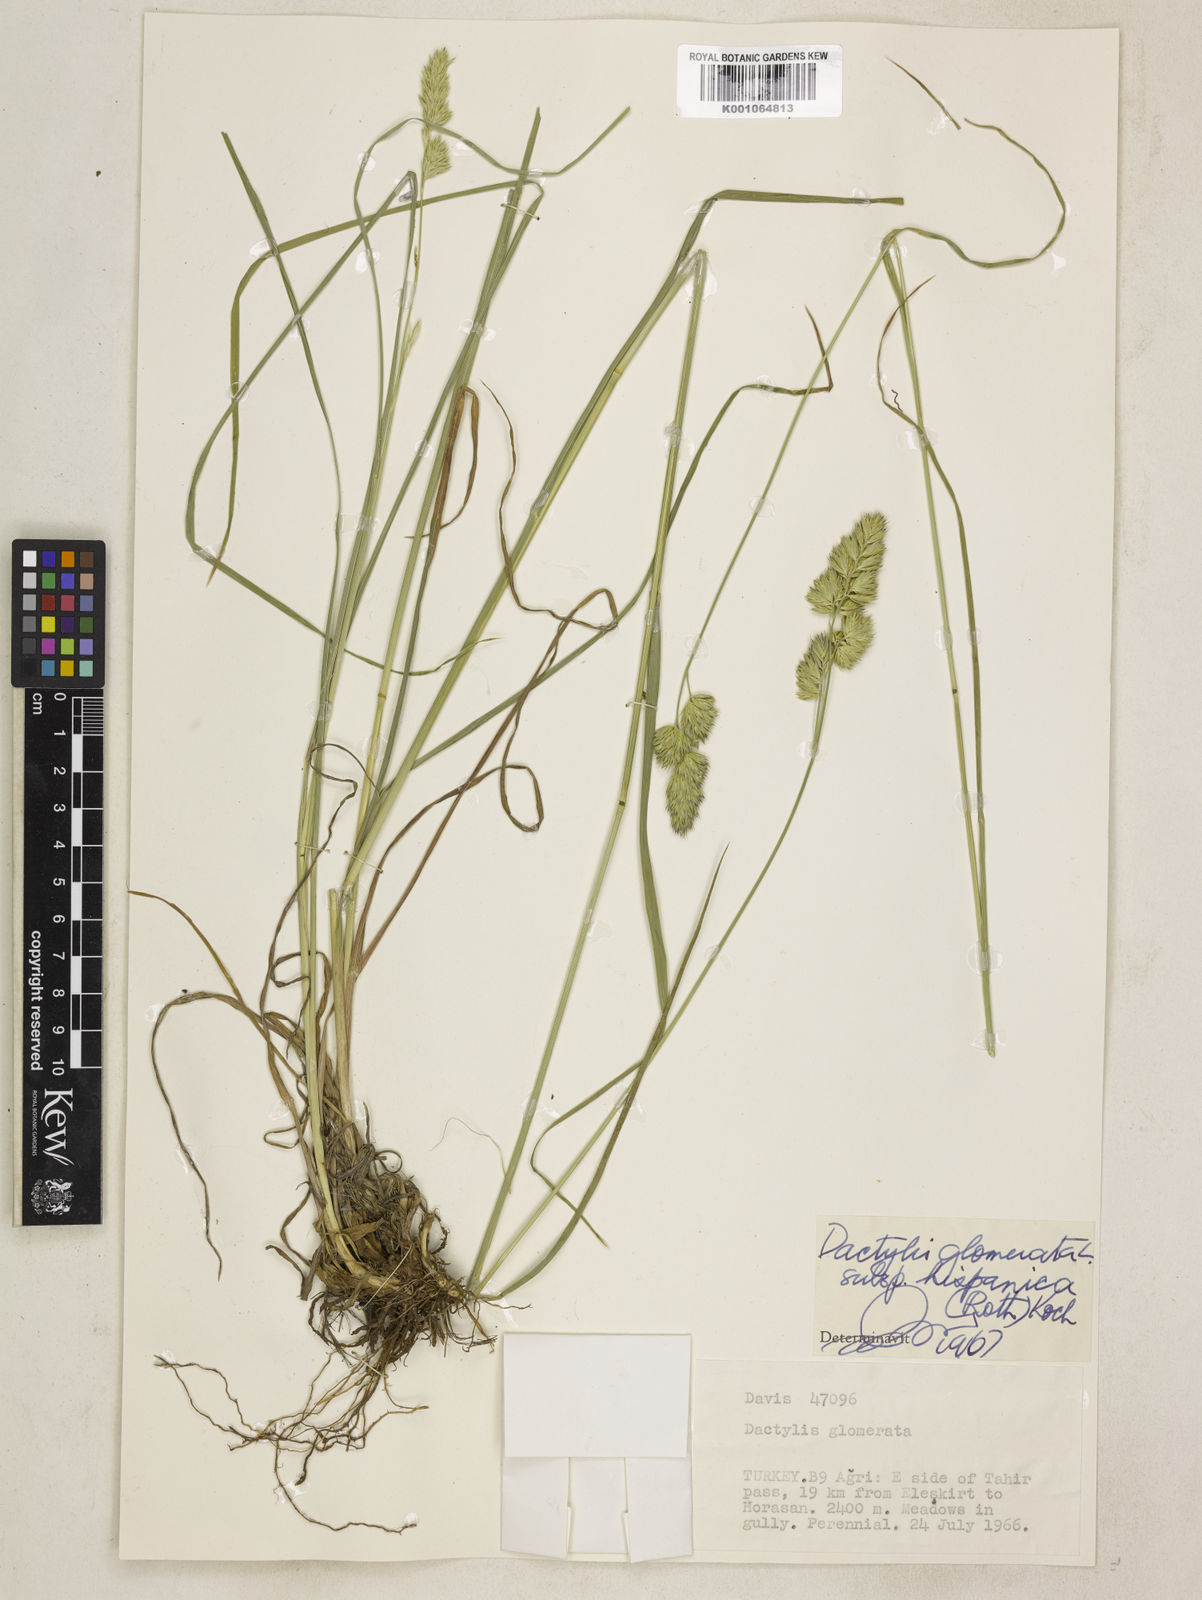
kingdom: Plantae
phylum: Tracheophyta
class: Liliopsida
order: Poales
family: Poaceae
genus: Dactylis
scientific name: Dactylis glomerata
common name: Orchardgrass
